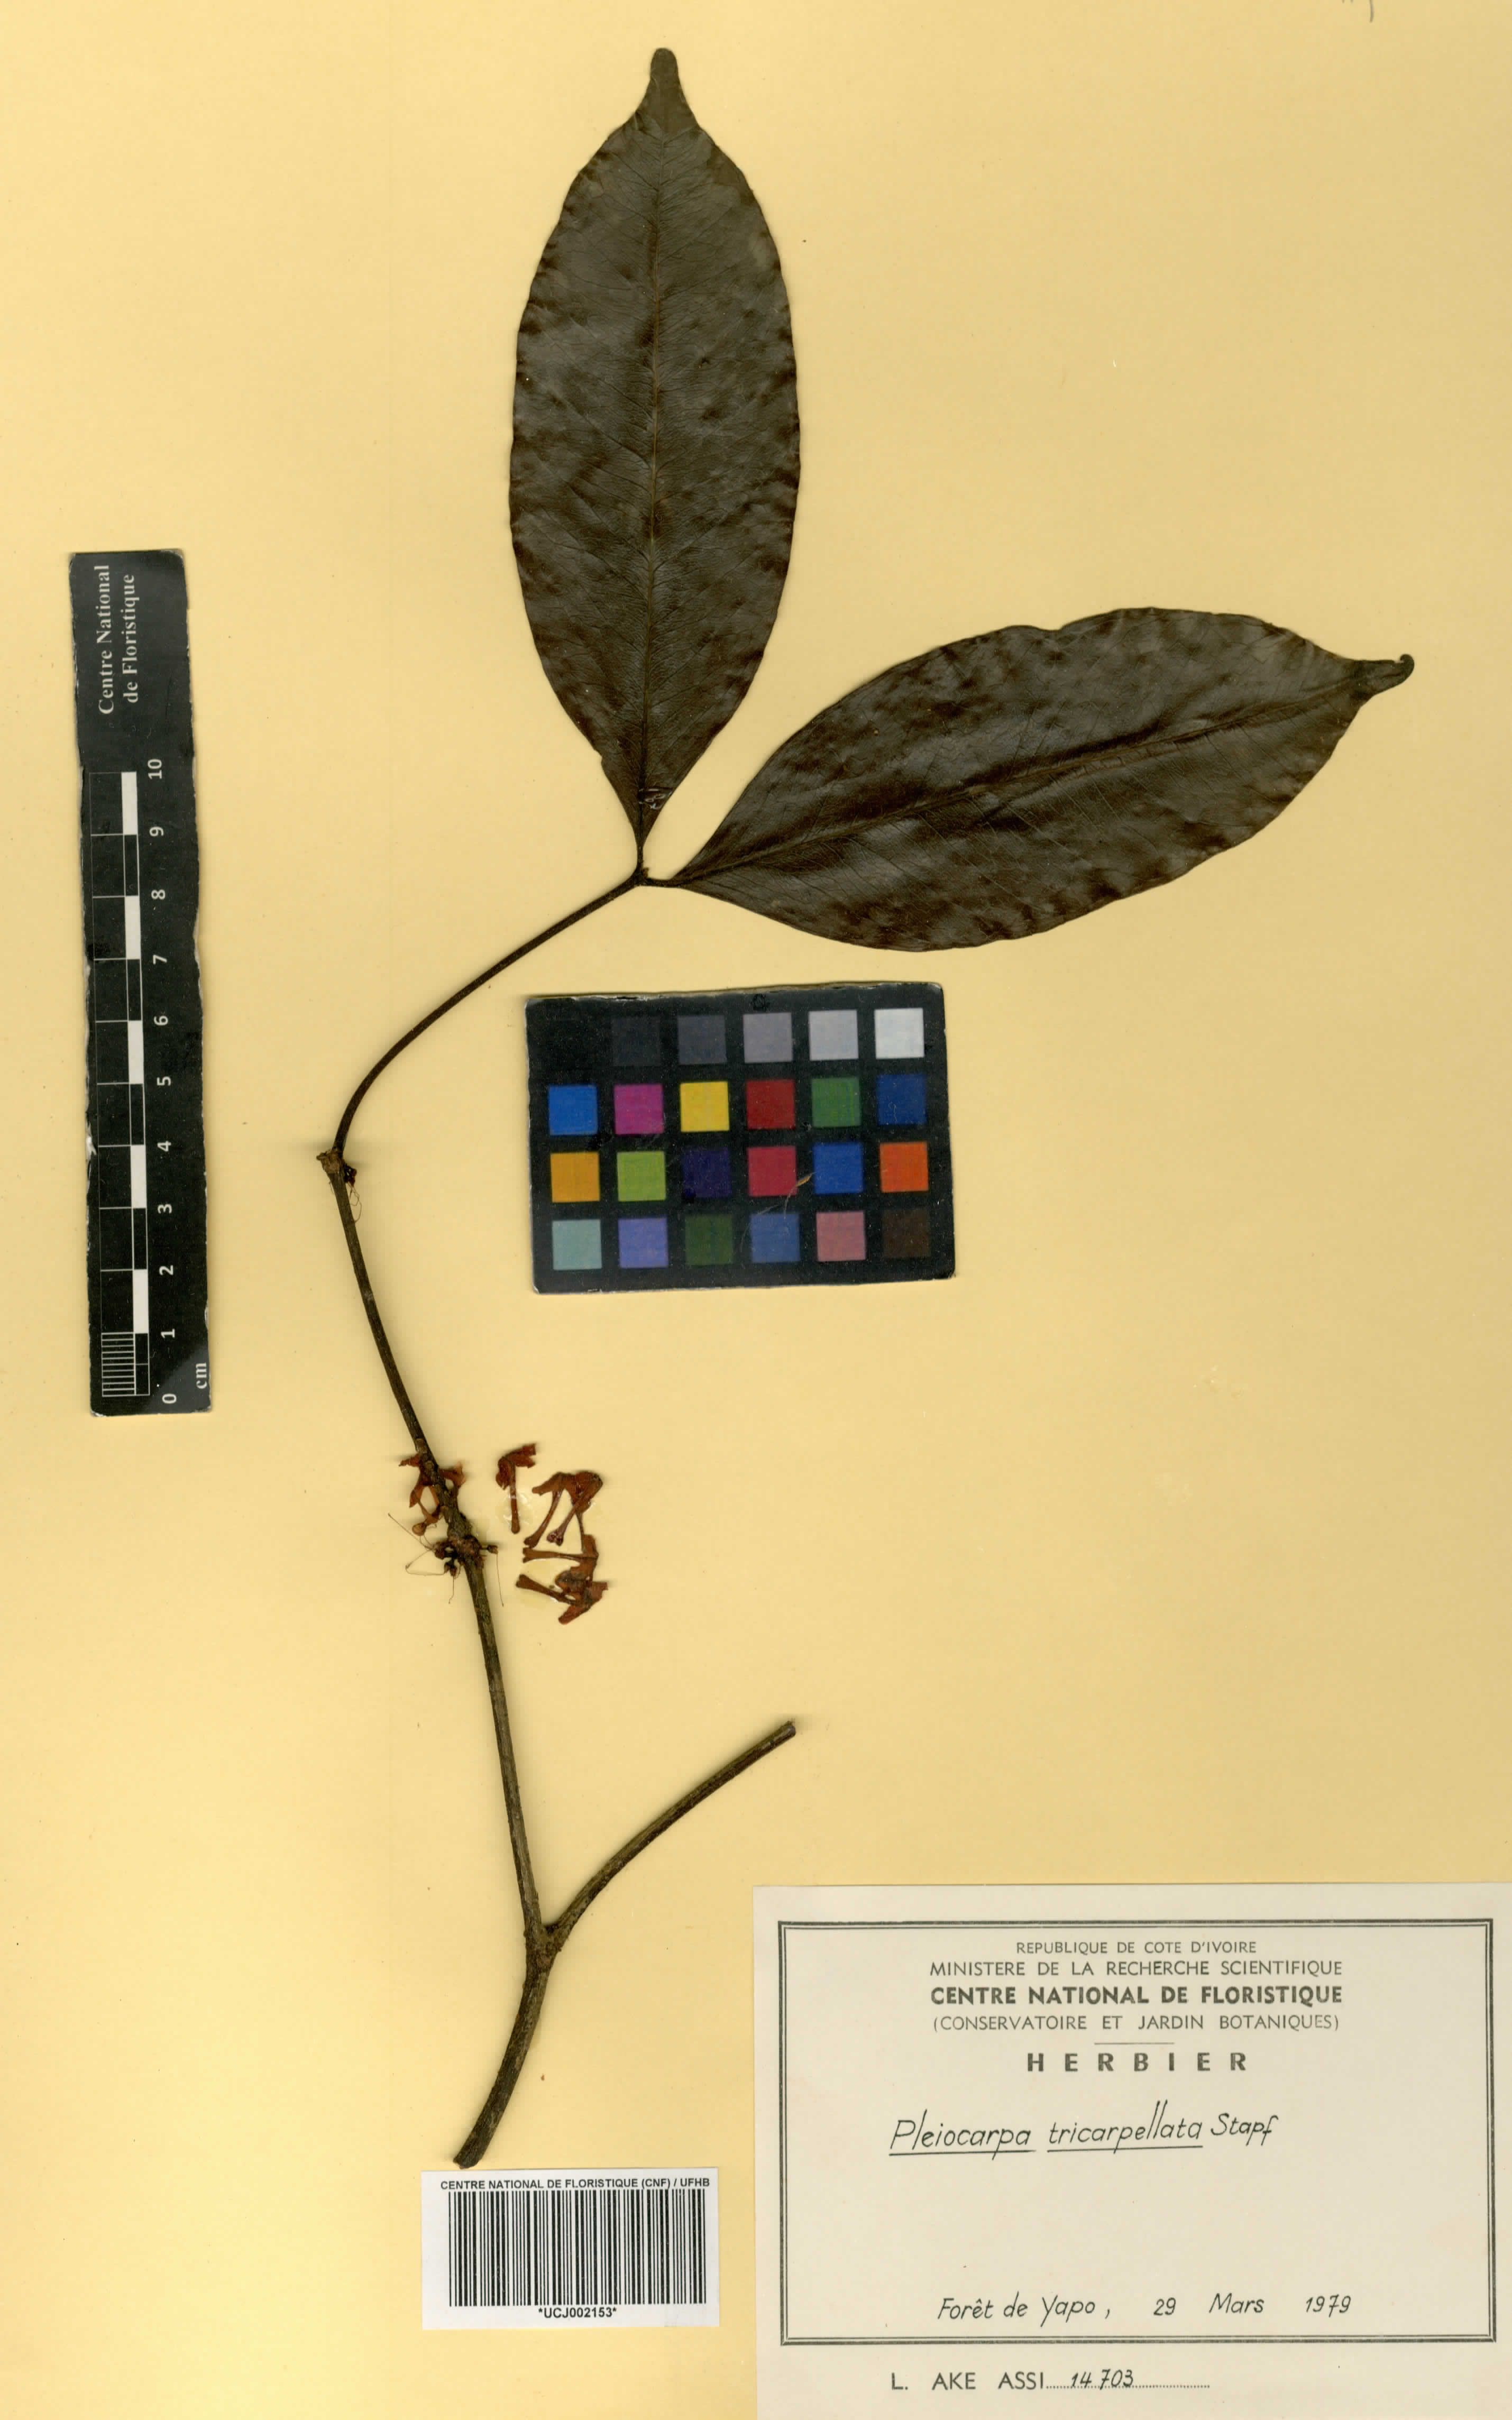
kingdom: Plantae
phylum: Tracheophyta
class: Magnoliopsida
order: Gentianales
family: Apocynaceae
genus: Pleiocarpa
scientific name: Pleiocarpa mutica
